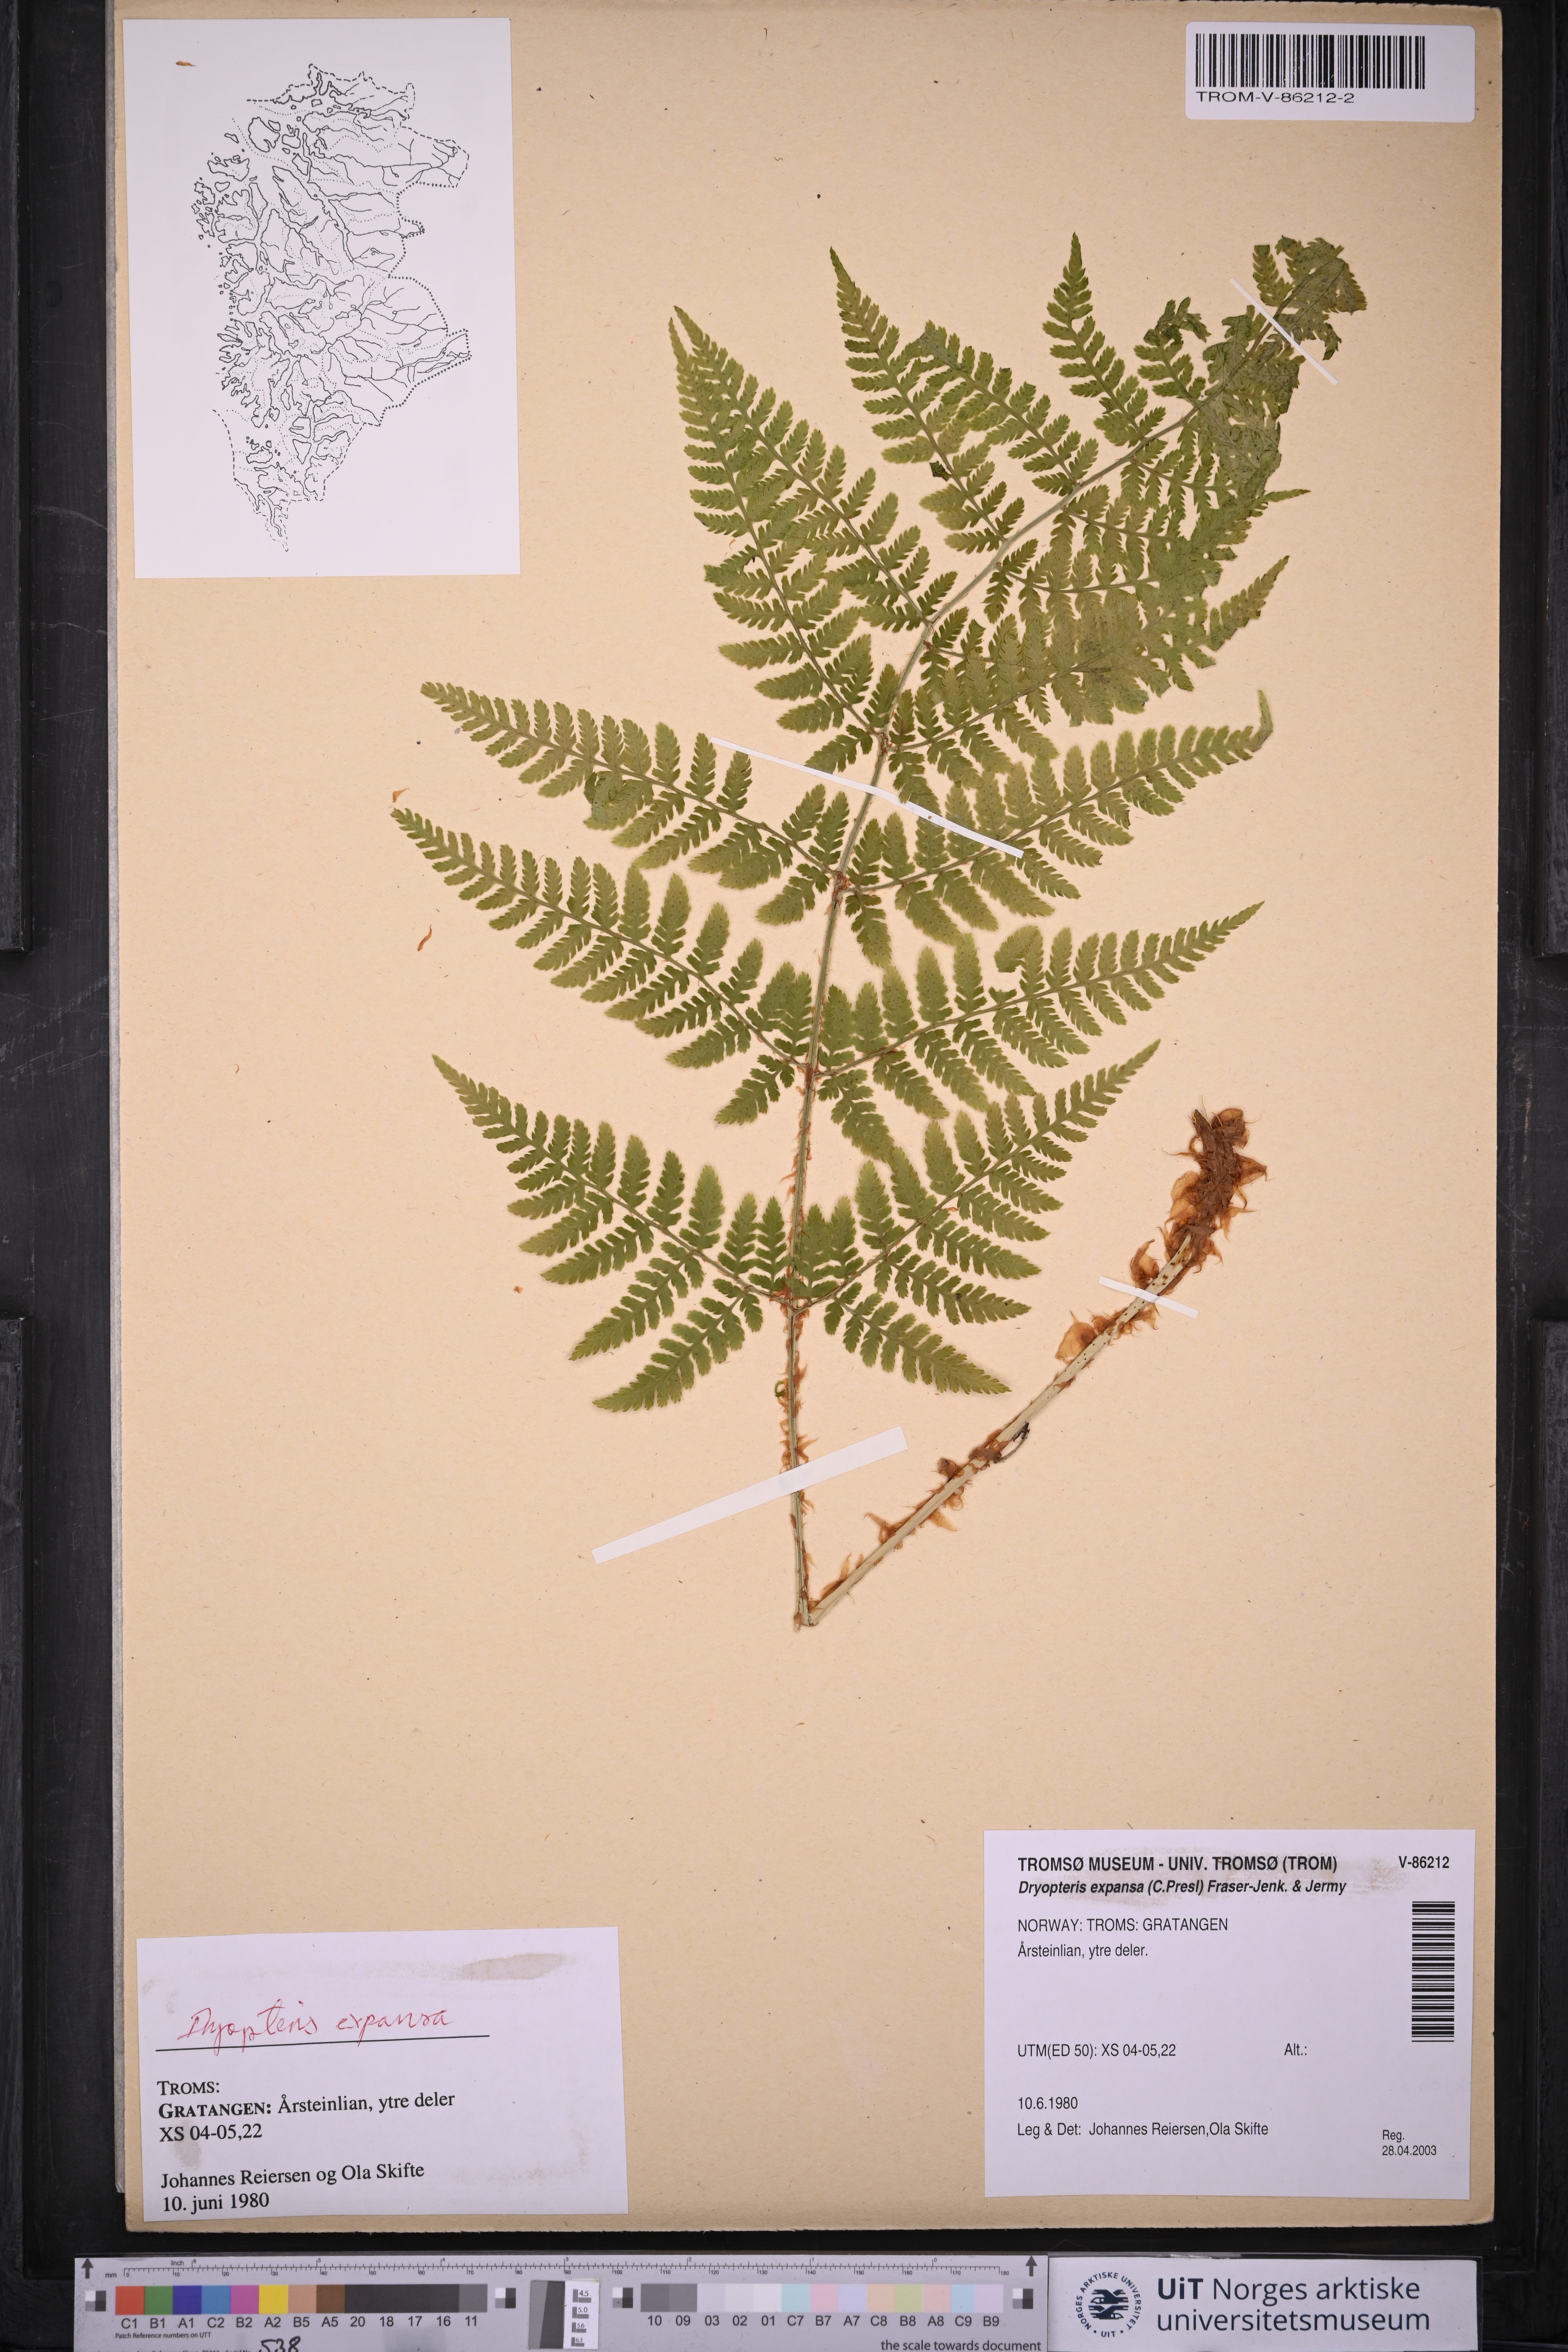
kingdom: Plantae
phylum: Tracheophyta
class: Polypodiopsida
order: Polypodiales
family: Dryopteridaceae
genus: Dryopteris
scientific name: Dryopteris expansa
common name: Northern buckler fern
